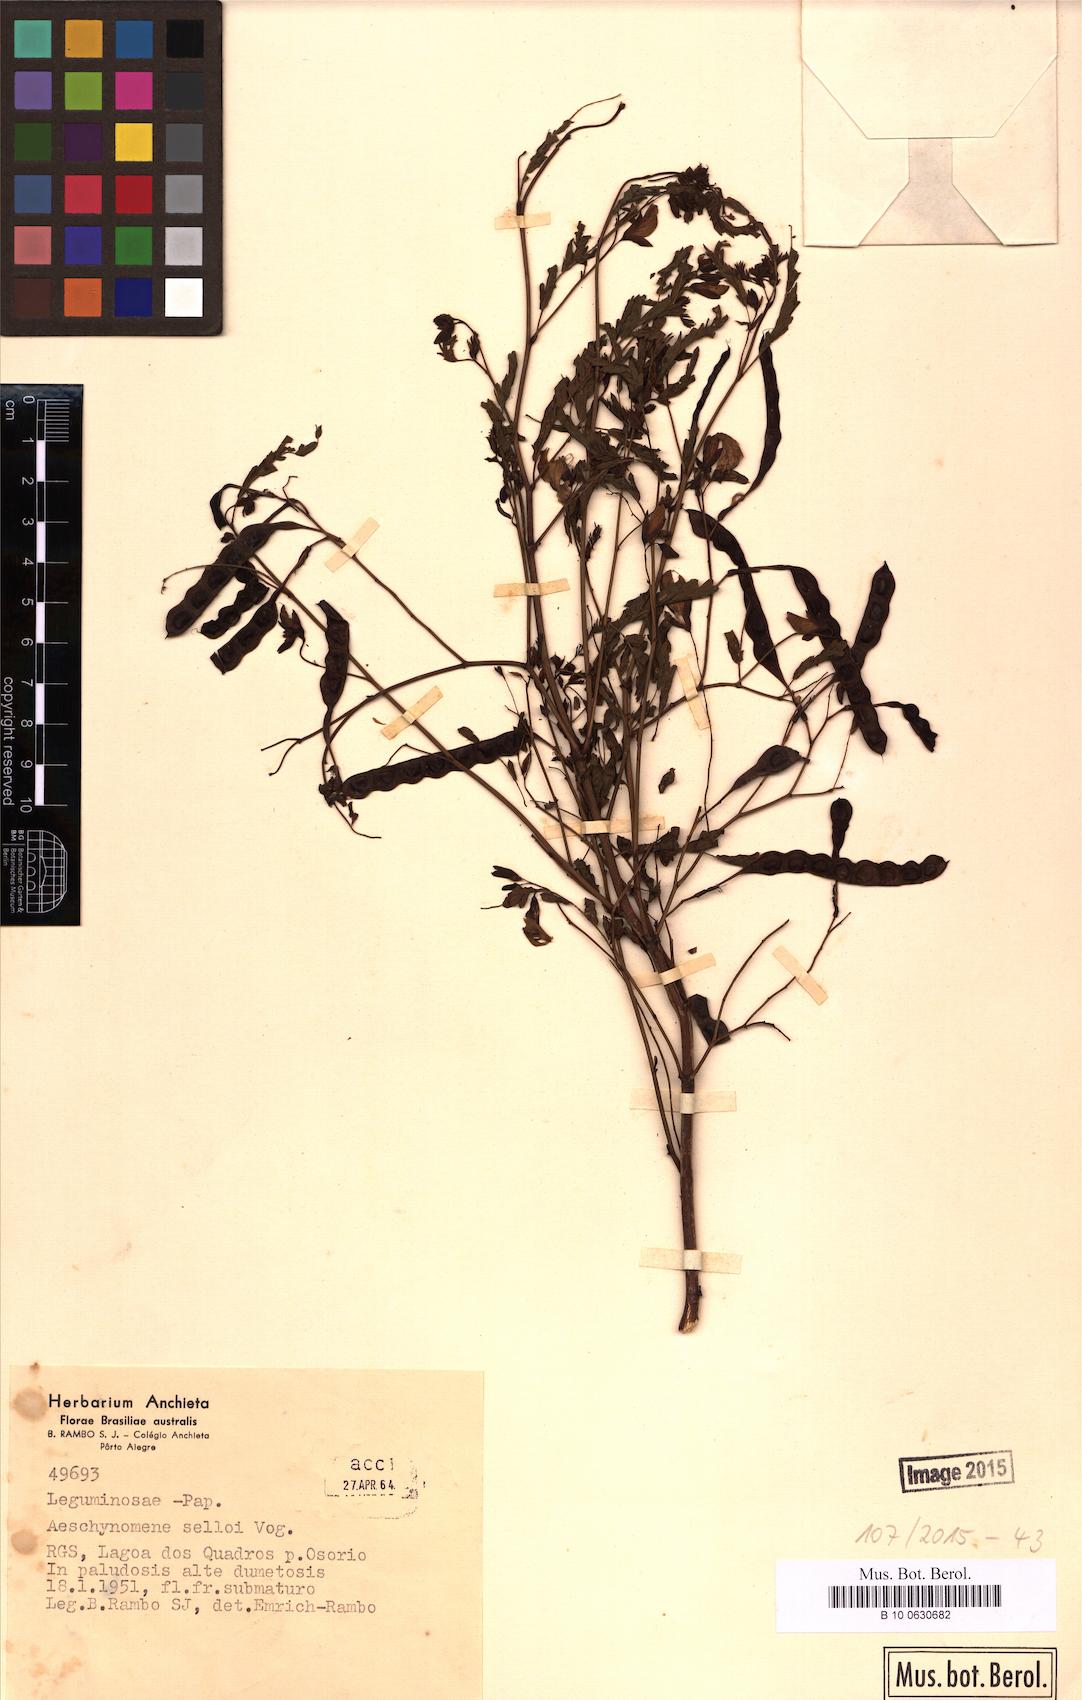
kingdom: Plantae
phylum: Tracheophyta
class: Magnoliopsida
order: Fabales
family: Fabaceae
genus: Aeschynomene
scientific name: Aeschynomene selloi
